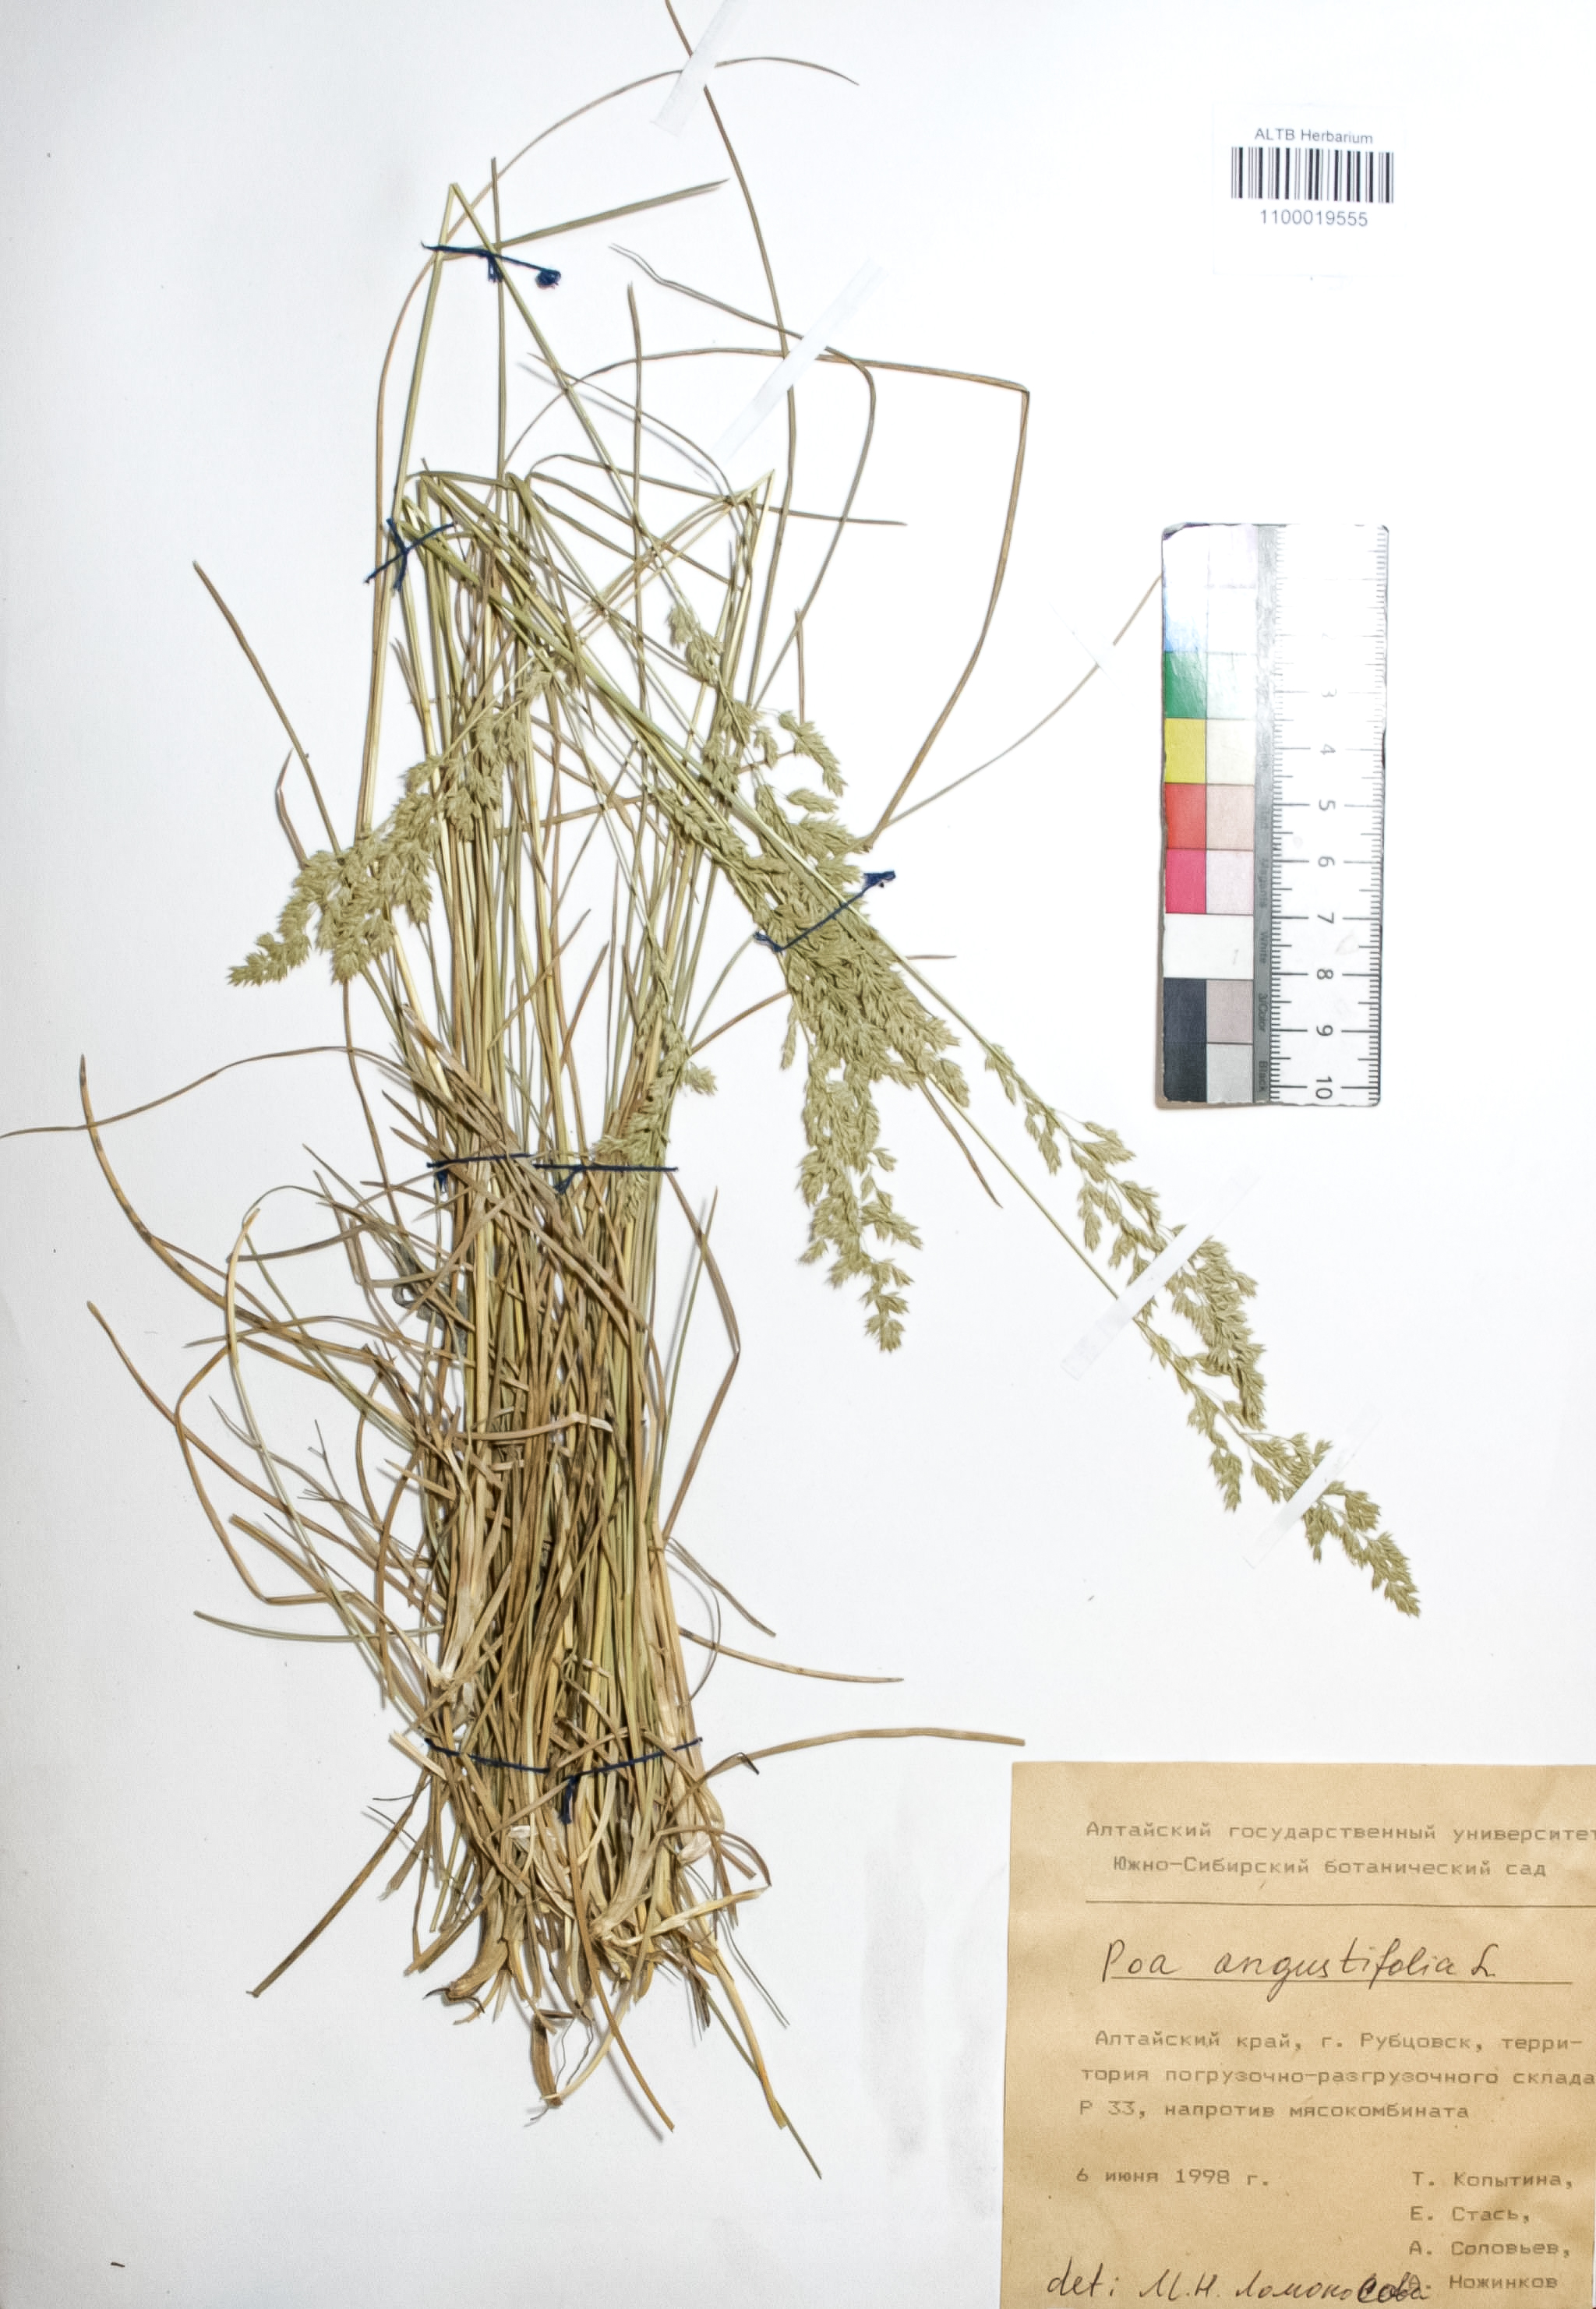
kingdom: Plantae
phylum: Tracheophyta
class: Liliopsida
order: Poales
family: Poaceae
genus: Poa
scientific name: Poa angustifolia
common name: Narrow-leaved meadow-grass
